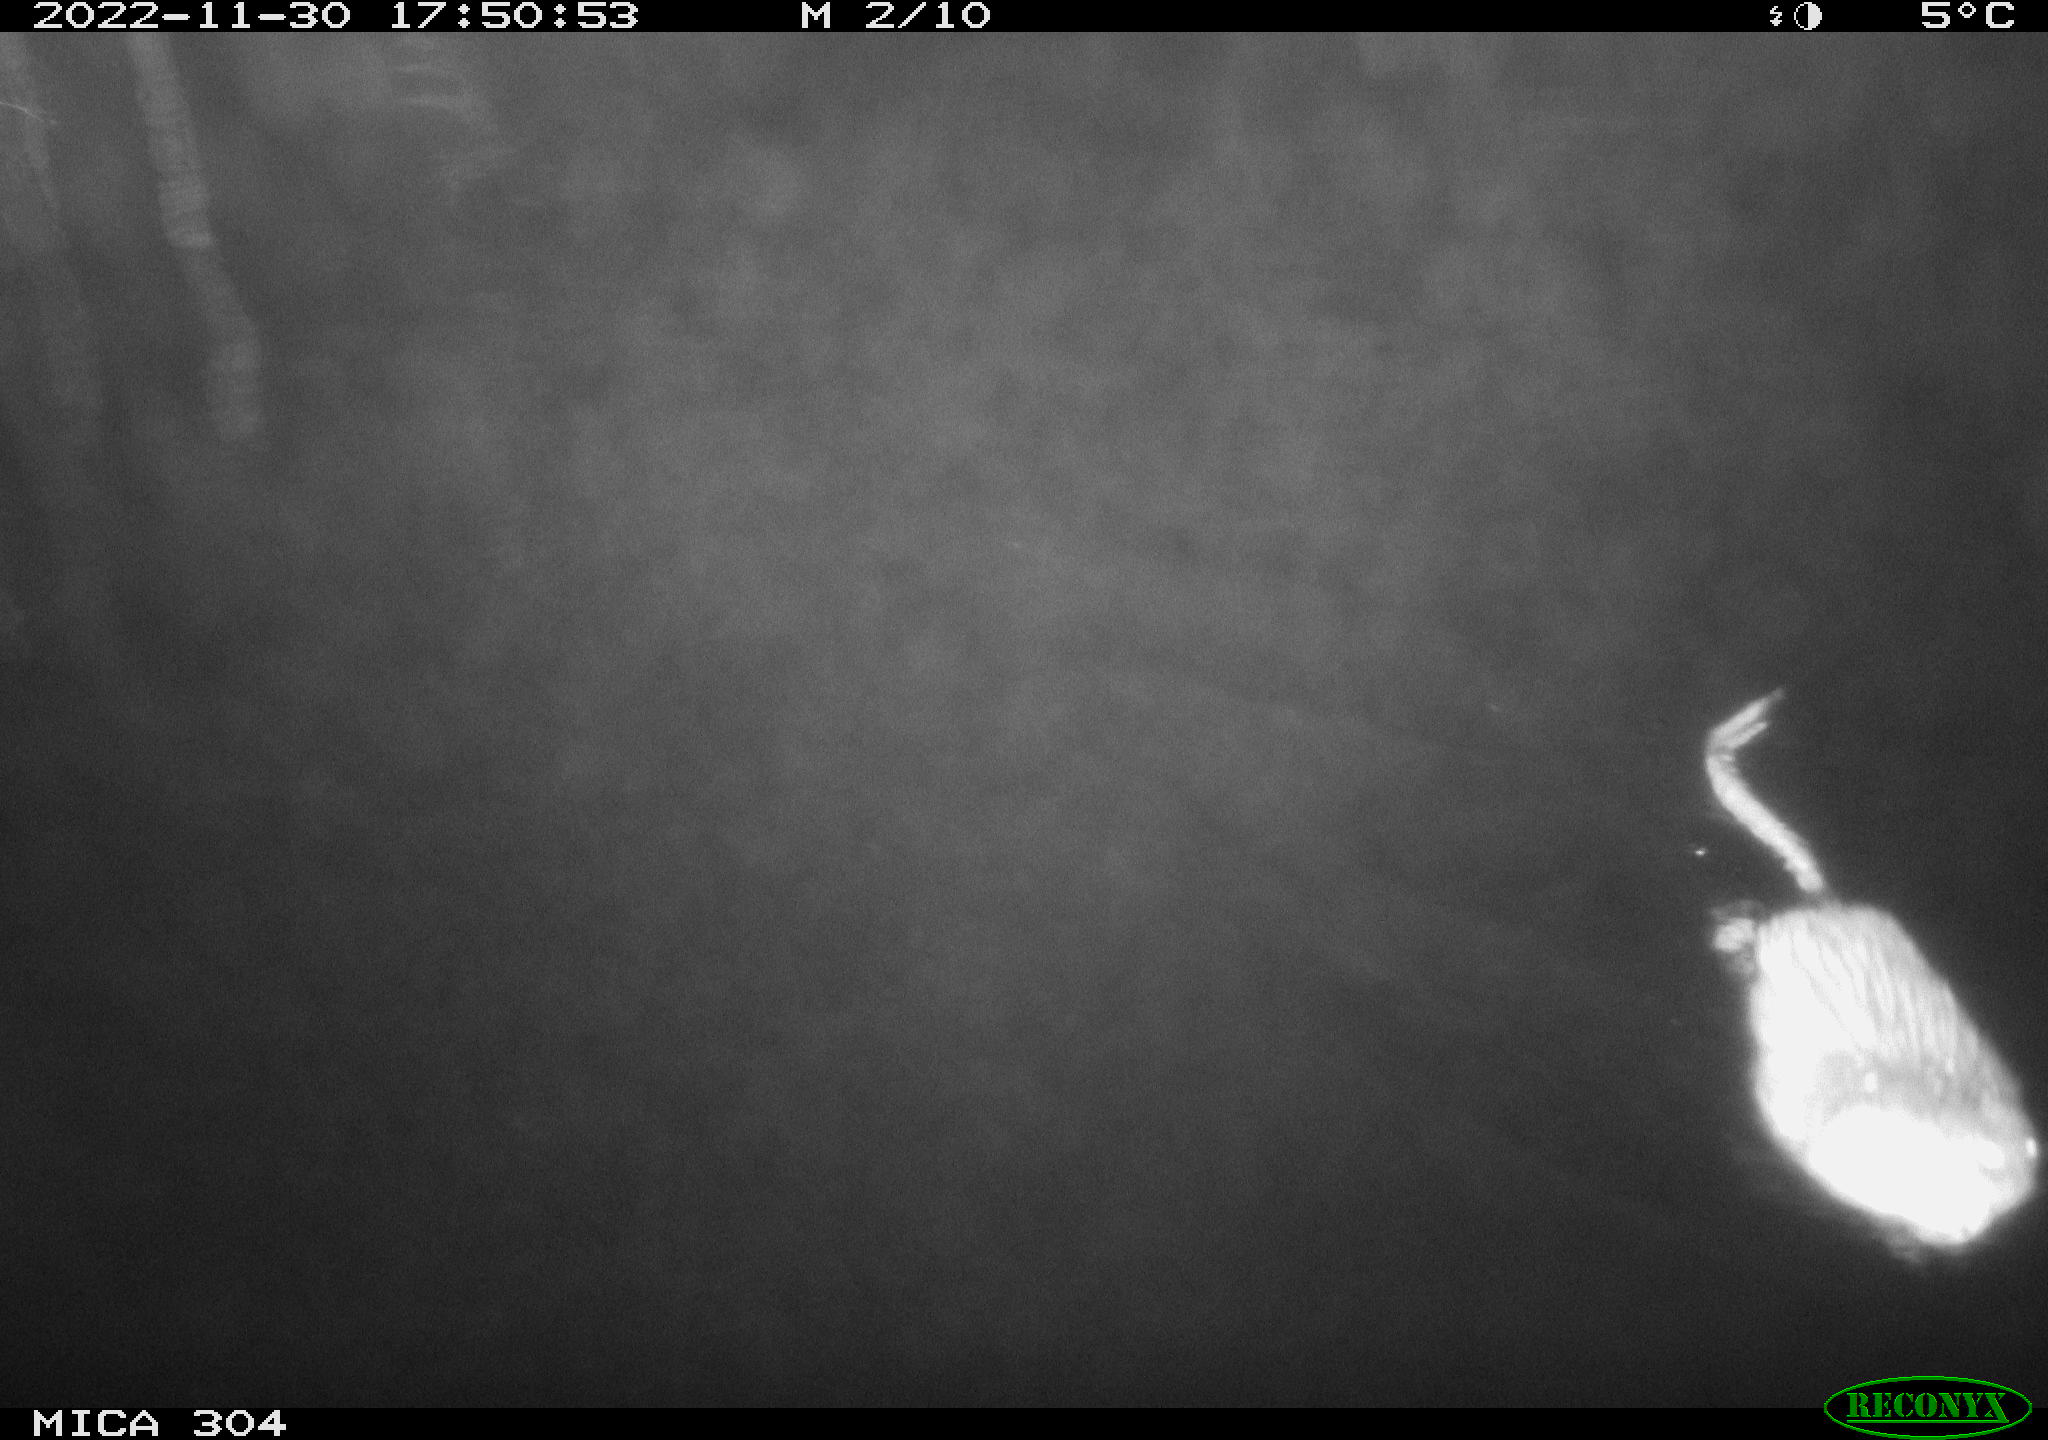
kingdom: Animalia
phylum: Chordata
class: Mammalia
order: Rodentia
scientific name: Rodentia
